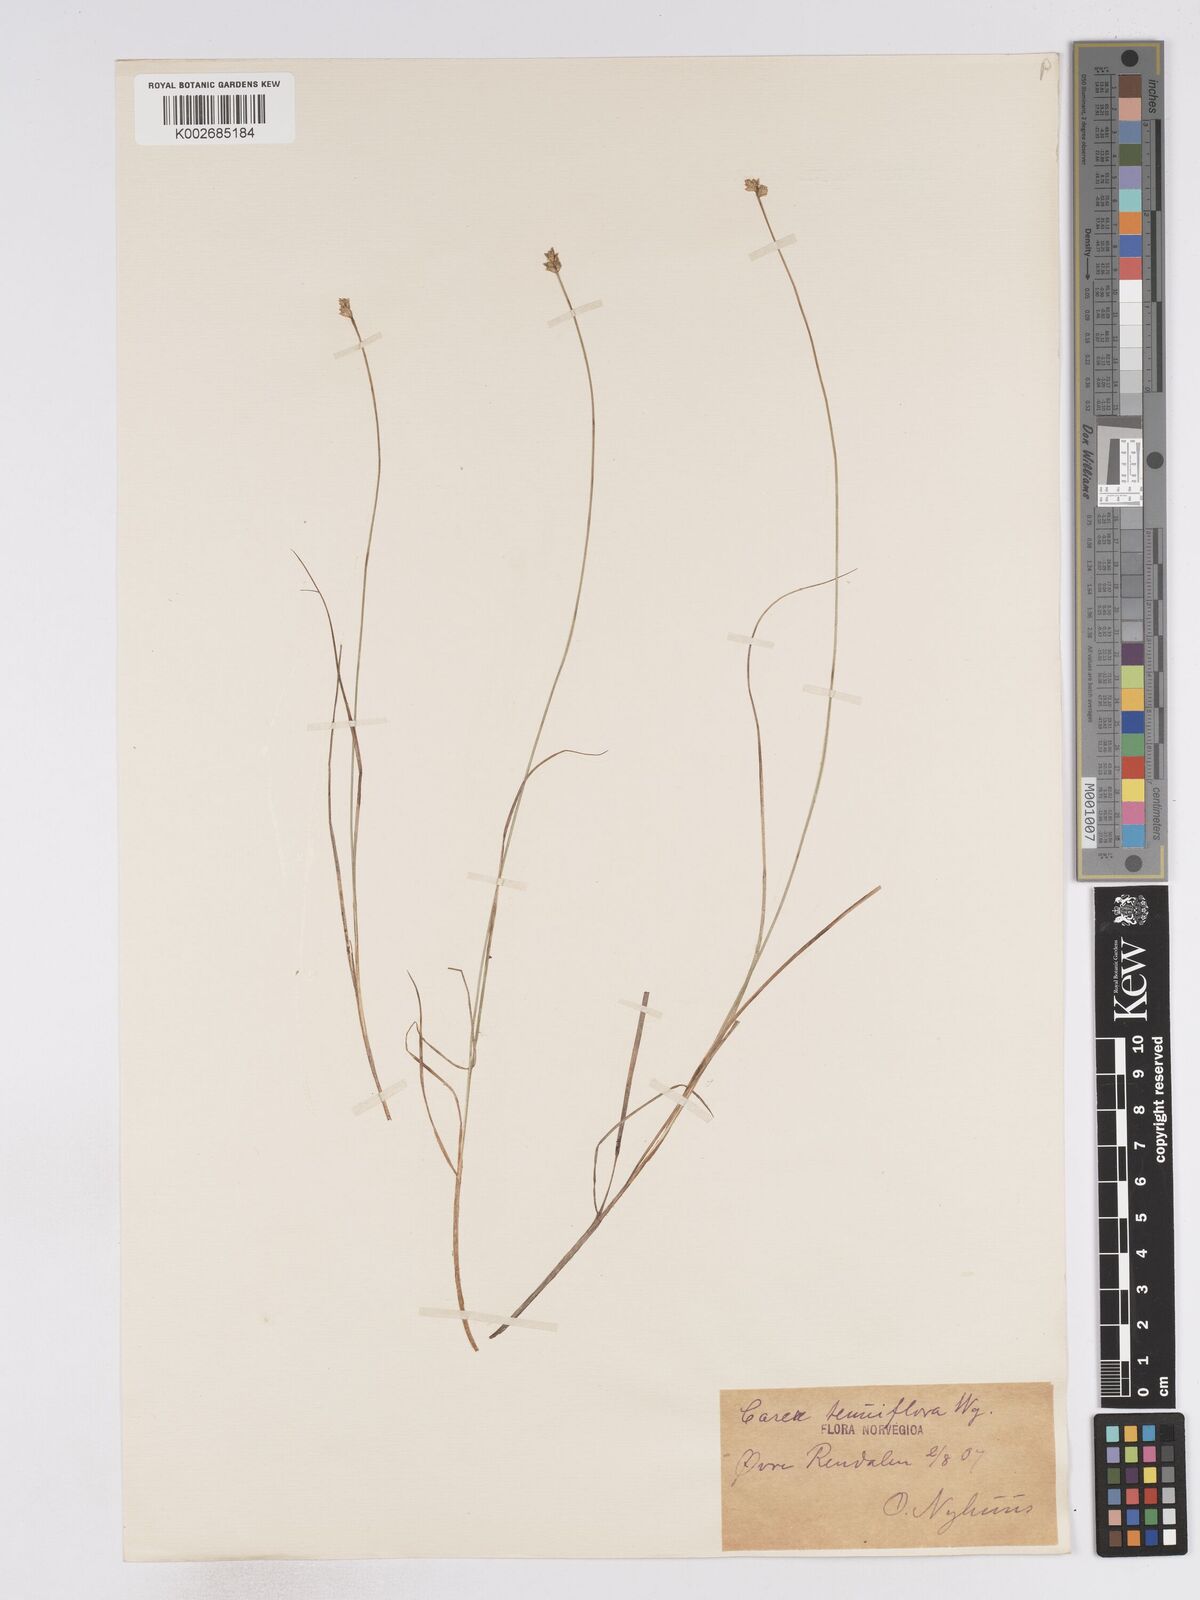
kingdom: Plantae
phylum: Tracheophyta
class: Liliopsida
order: Poales
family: Cyperaceae
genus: Carex
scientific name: Carex tenuiflora
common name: Sparse-flowered sedge
